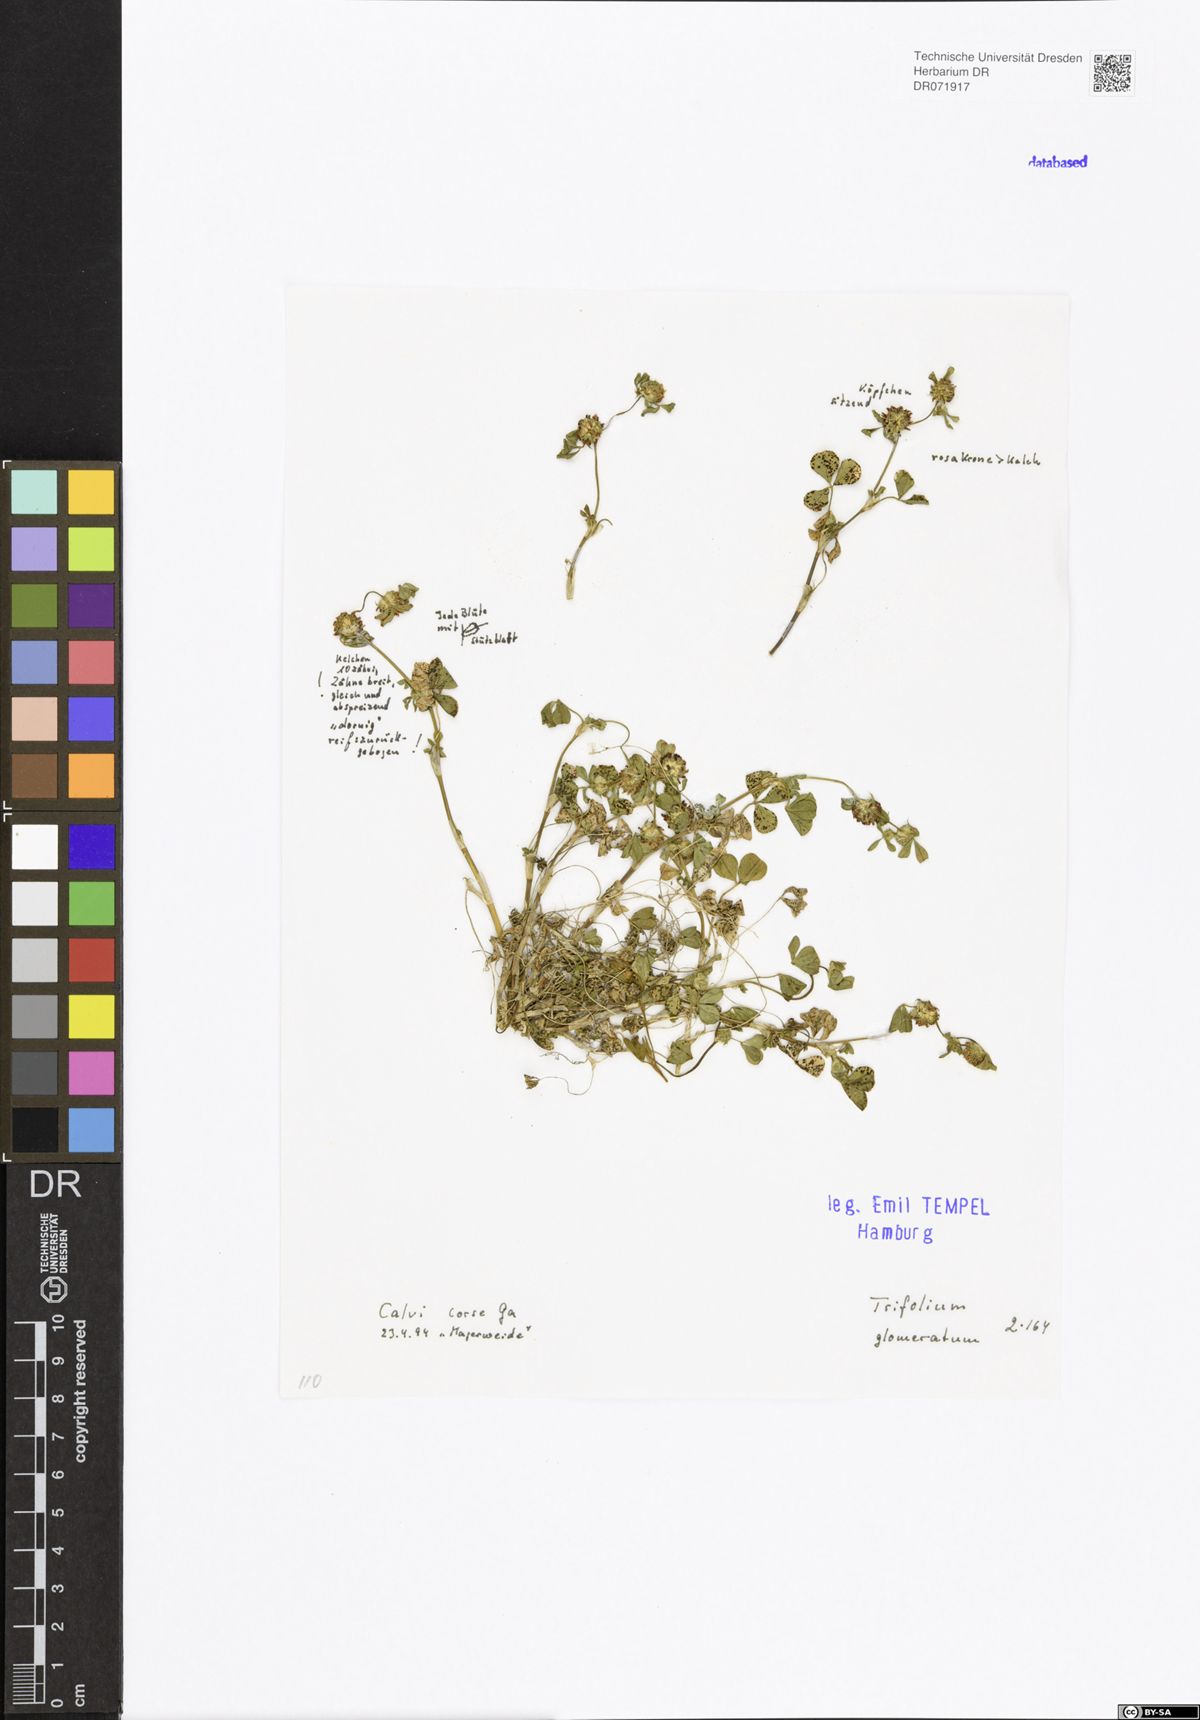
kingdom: Plantae
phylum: Tracheophyta
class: Magnoliopsida
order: Fabales
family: Fabaceae
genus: Trifolium
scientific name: Trifolium glomeratum
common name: Clustered clover
